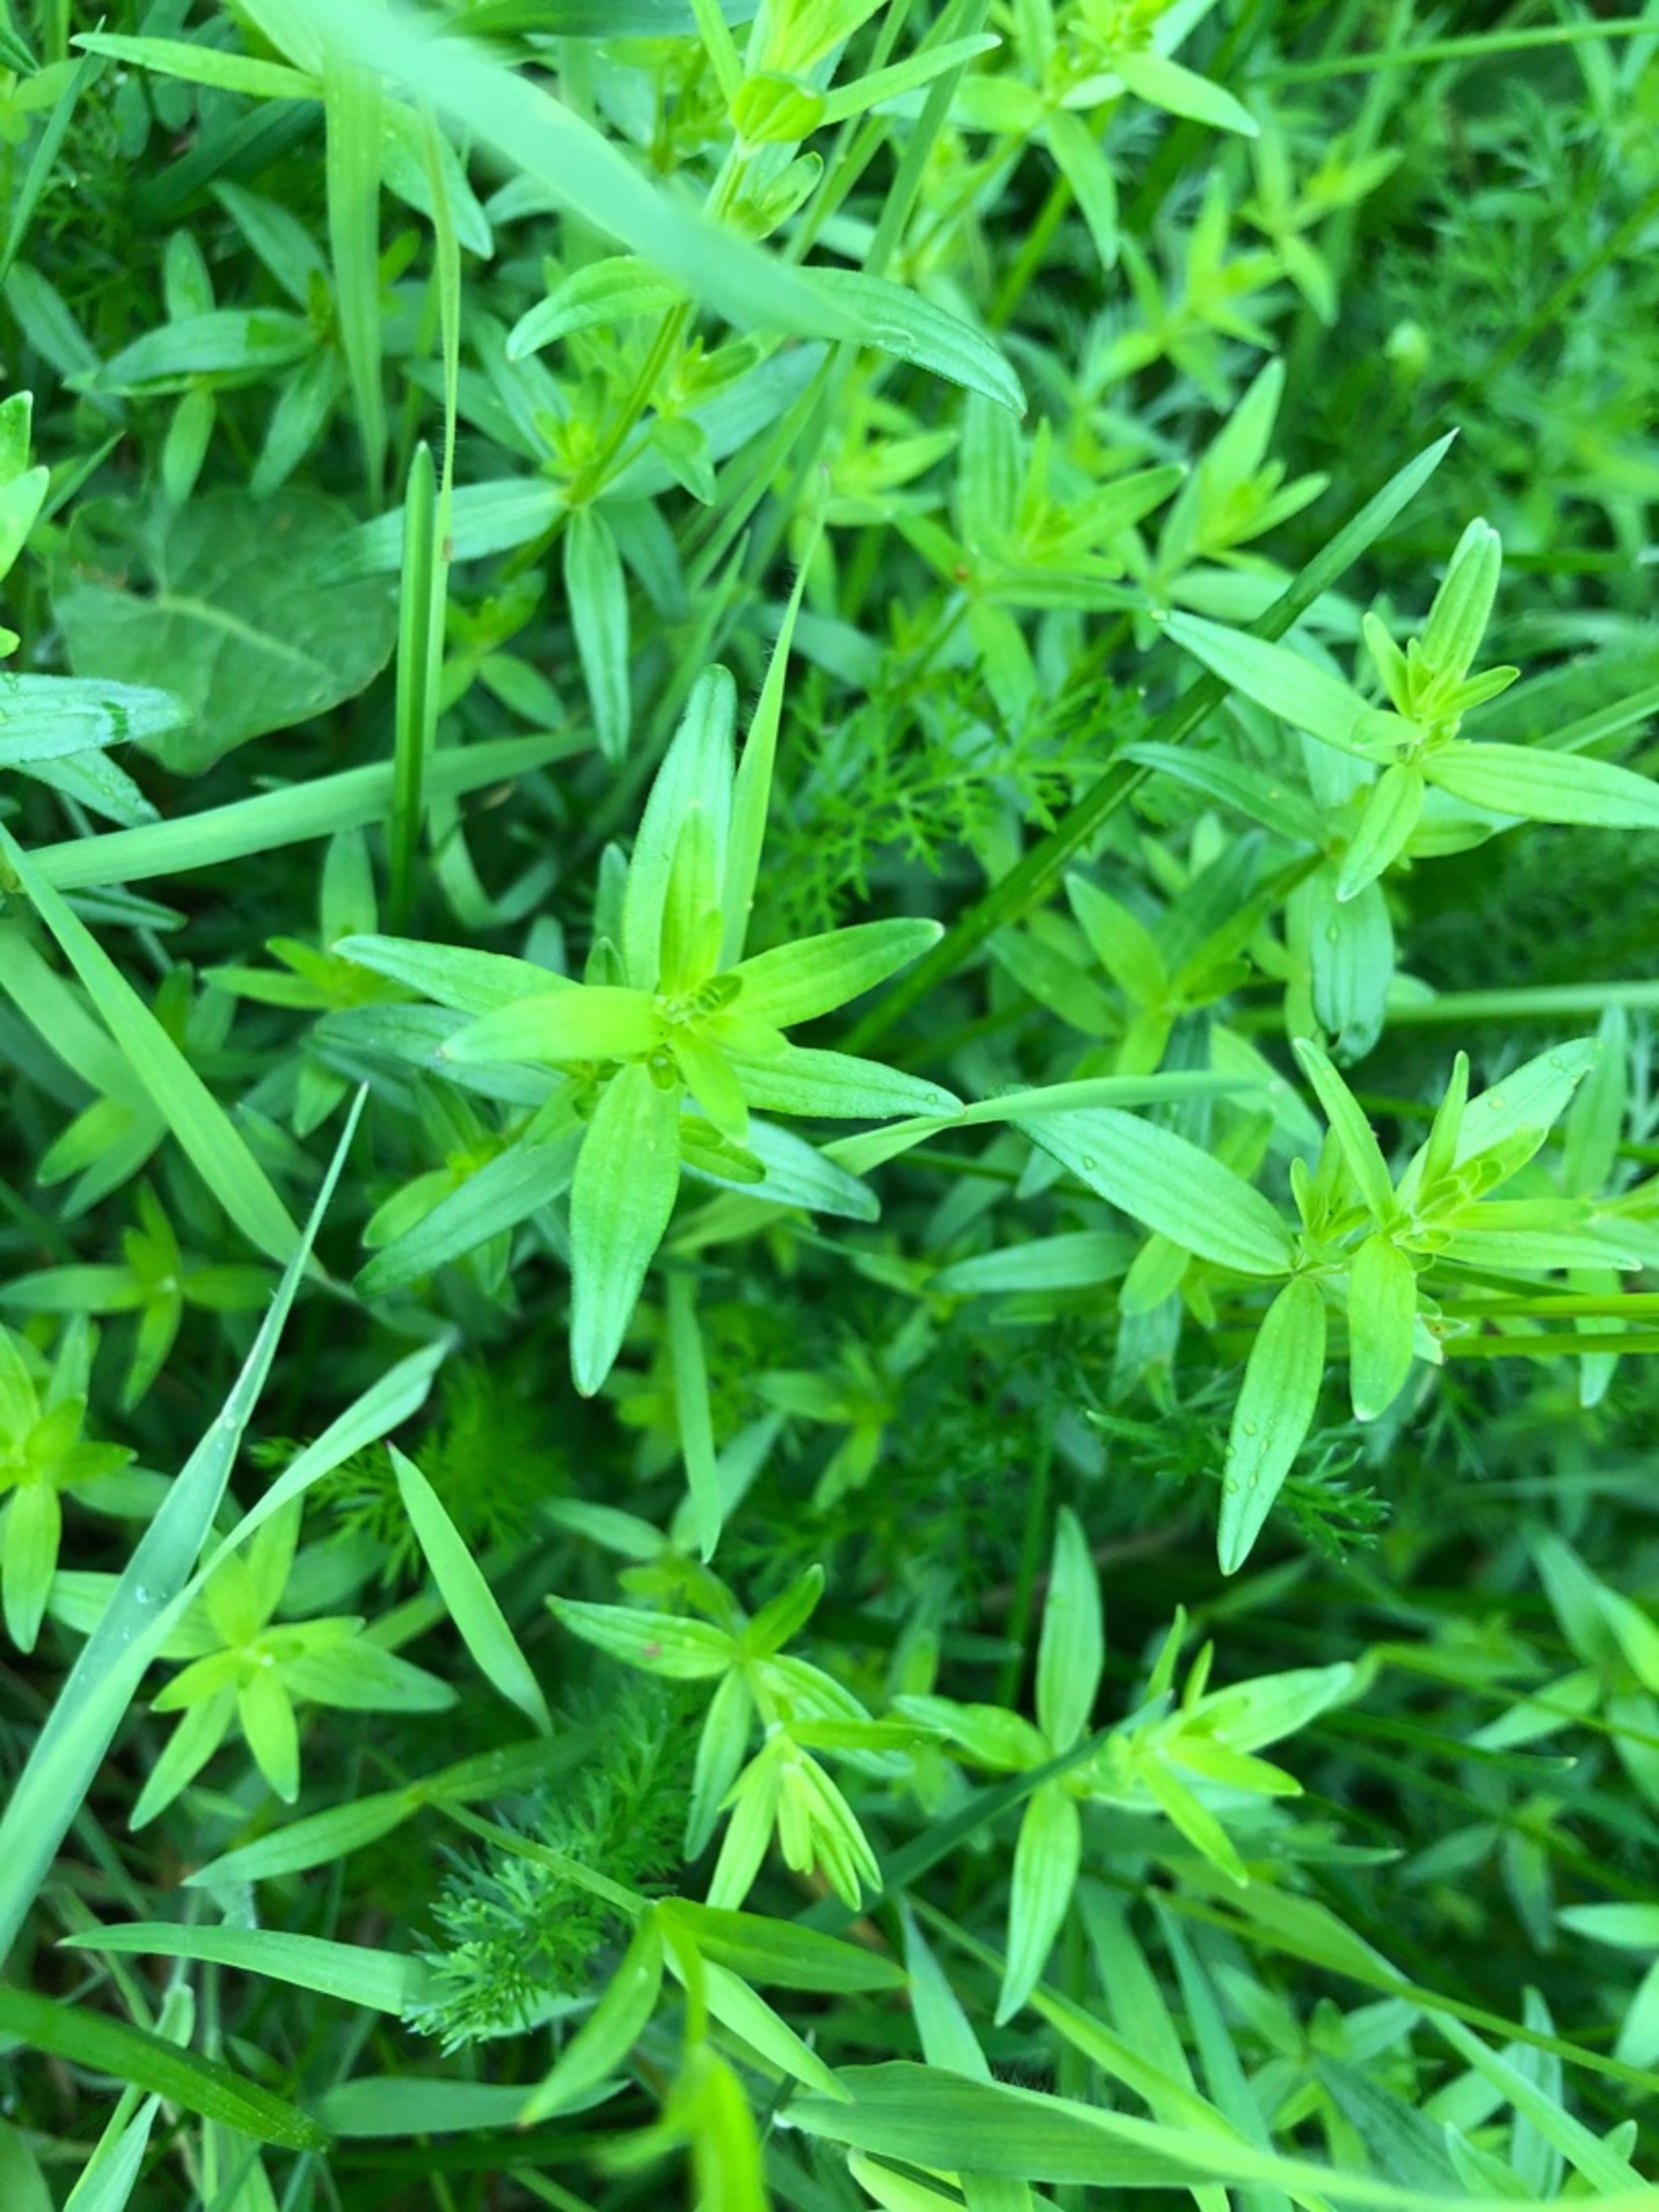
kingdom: Plantae
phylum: Tracheophyta
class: Magnoliopsida
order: Gentianales
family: Rubiaceae
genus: Galium
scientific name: Galium boreale
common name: Trenervet snerre
